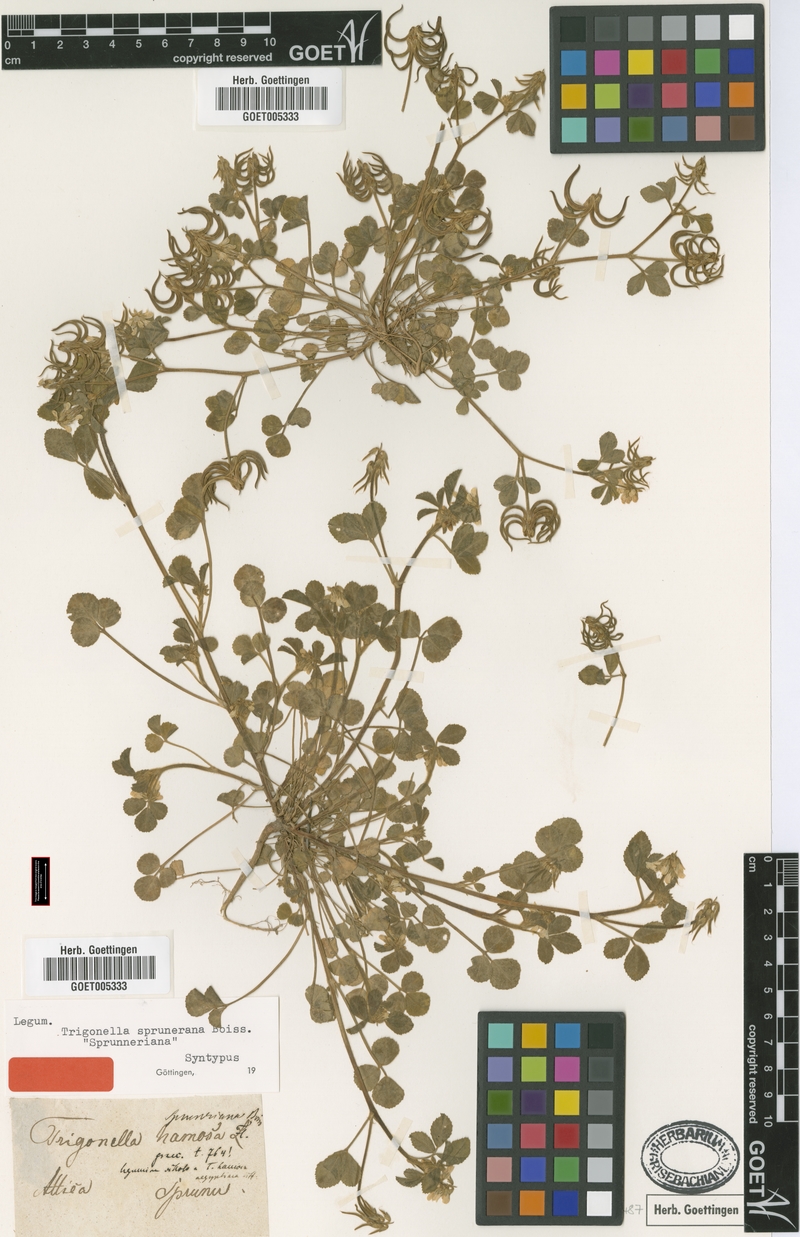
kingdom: Plantae
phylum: Tracheophyta
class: Magnoliopsida
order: Fabales
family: Fabaceae
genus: Trigonella
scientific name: Trigonella sprunerana
